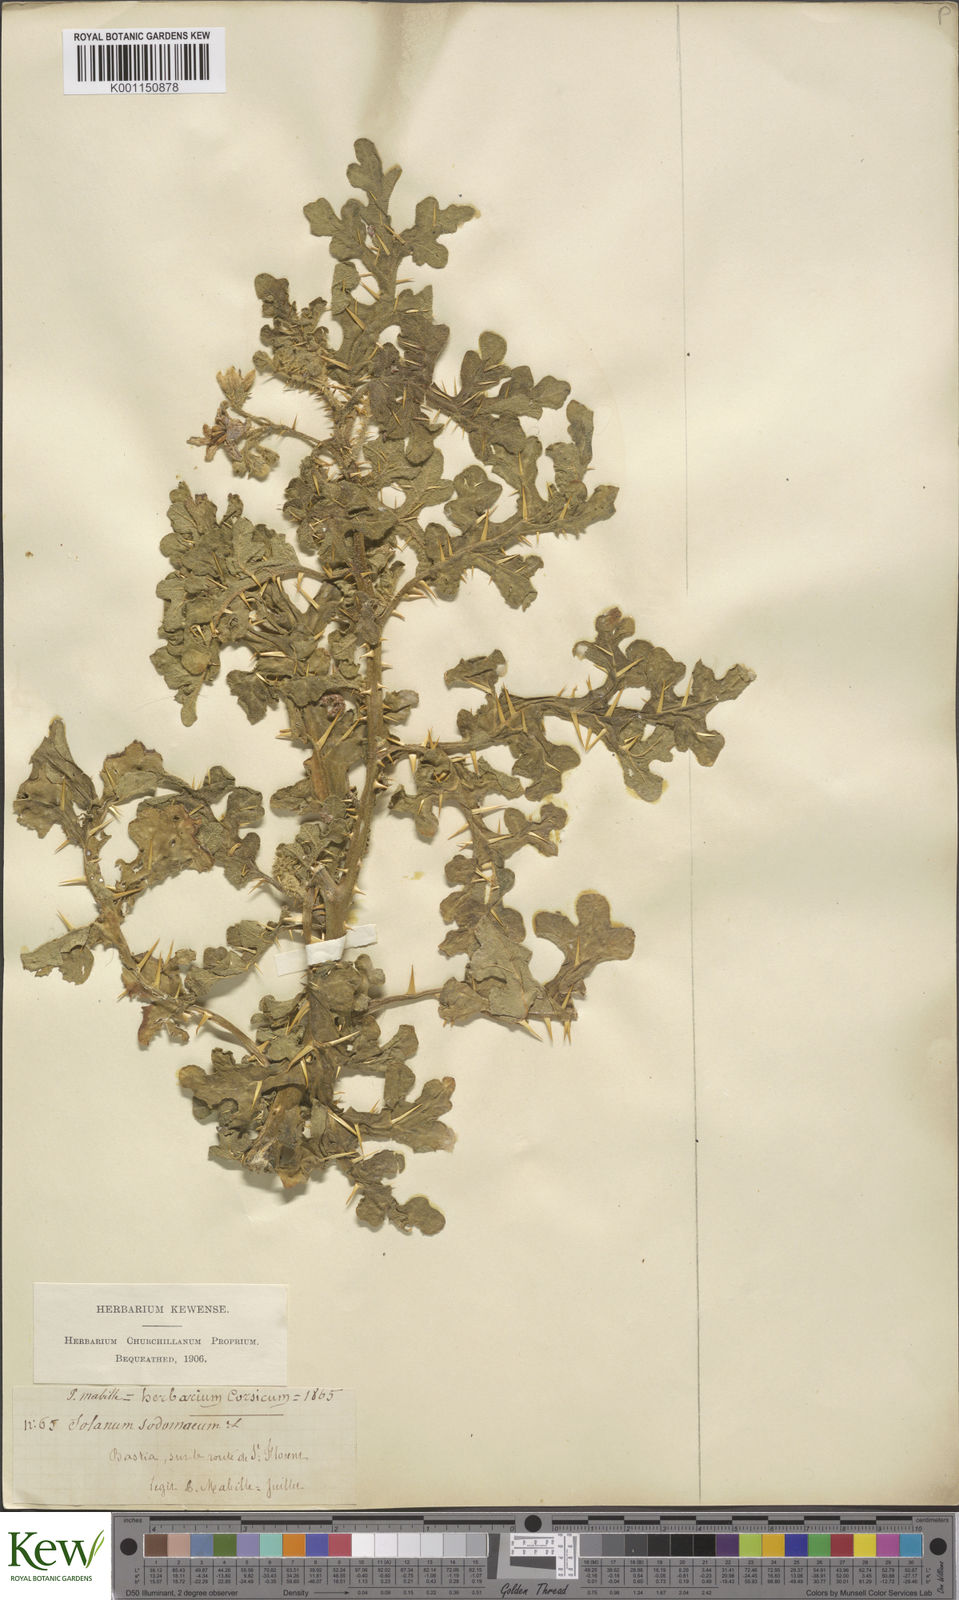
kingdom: Plantae
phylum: Tracheophyta
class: Magnoliopsida
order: Solanales
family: Solanaceae
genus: Solanum
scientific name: Solanum anguivi
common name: Forest bitterberry
